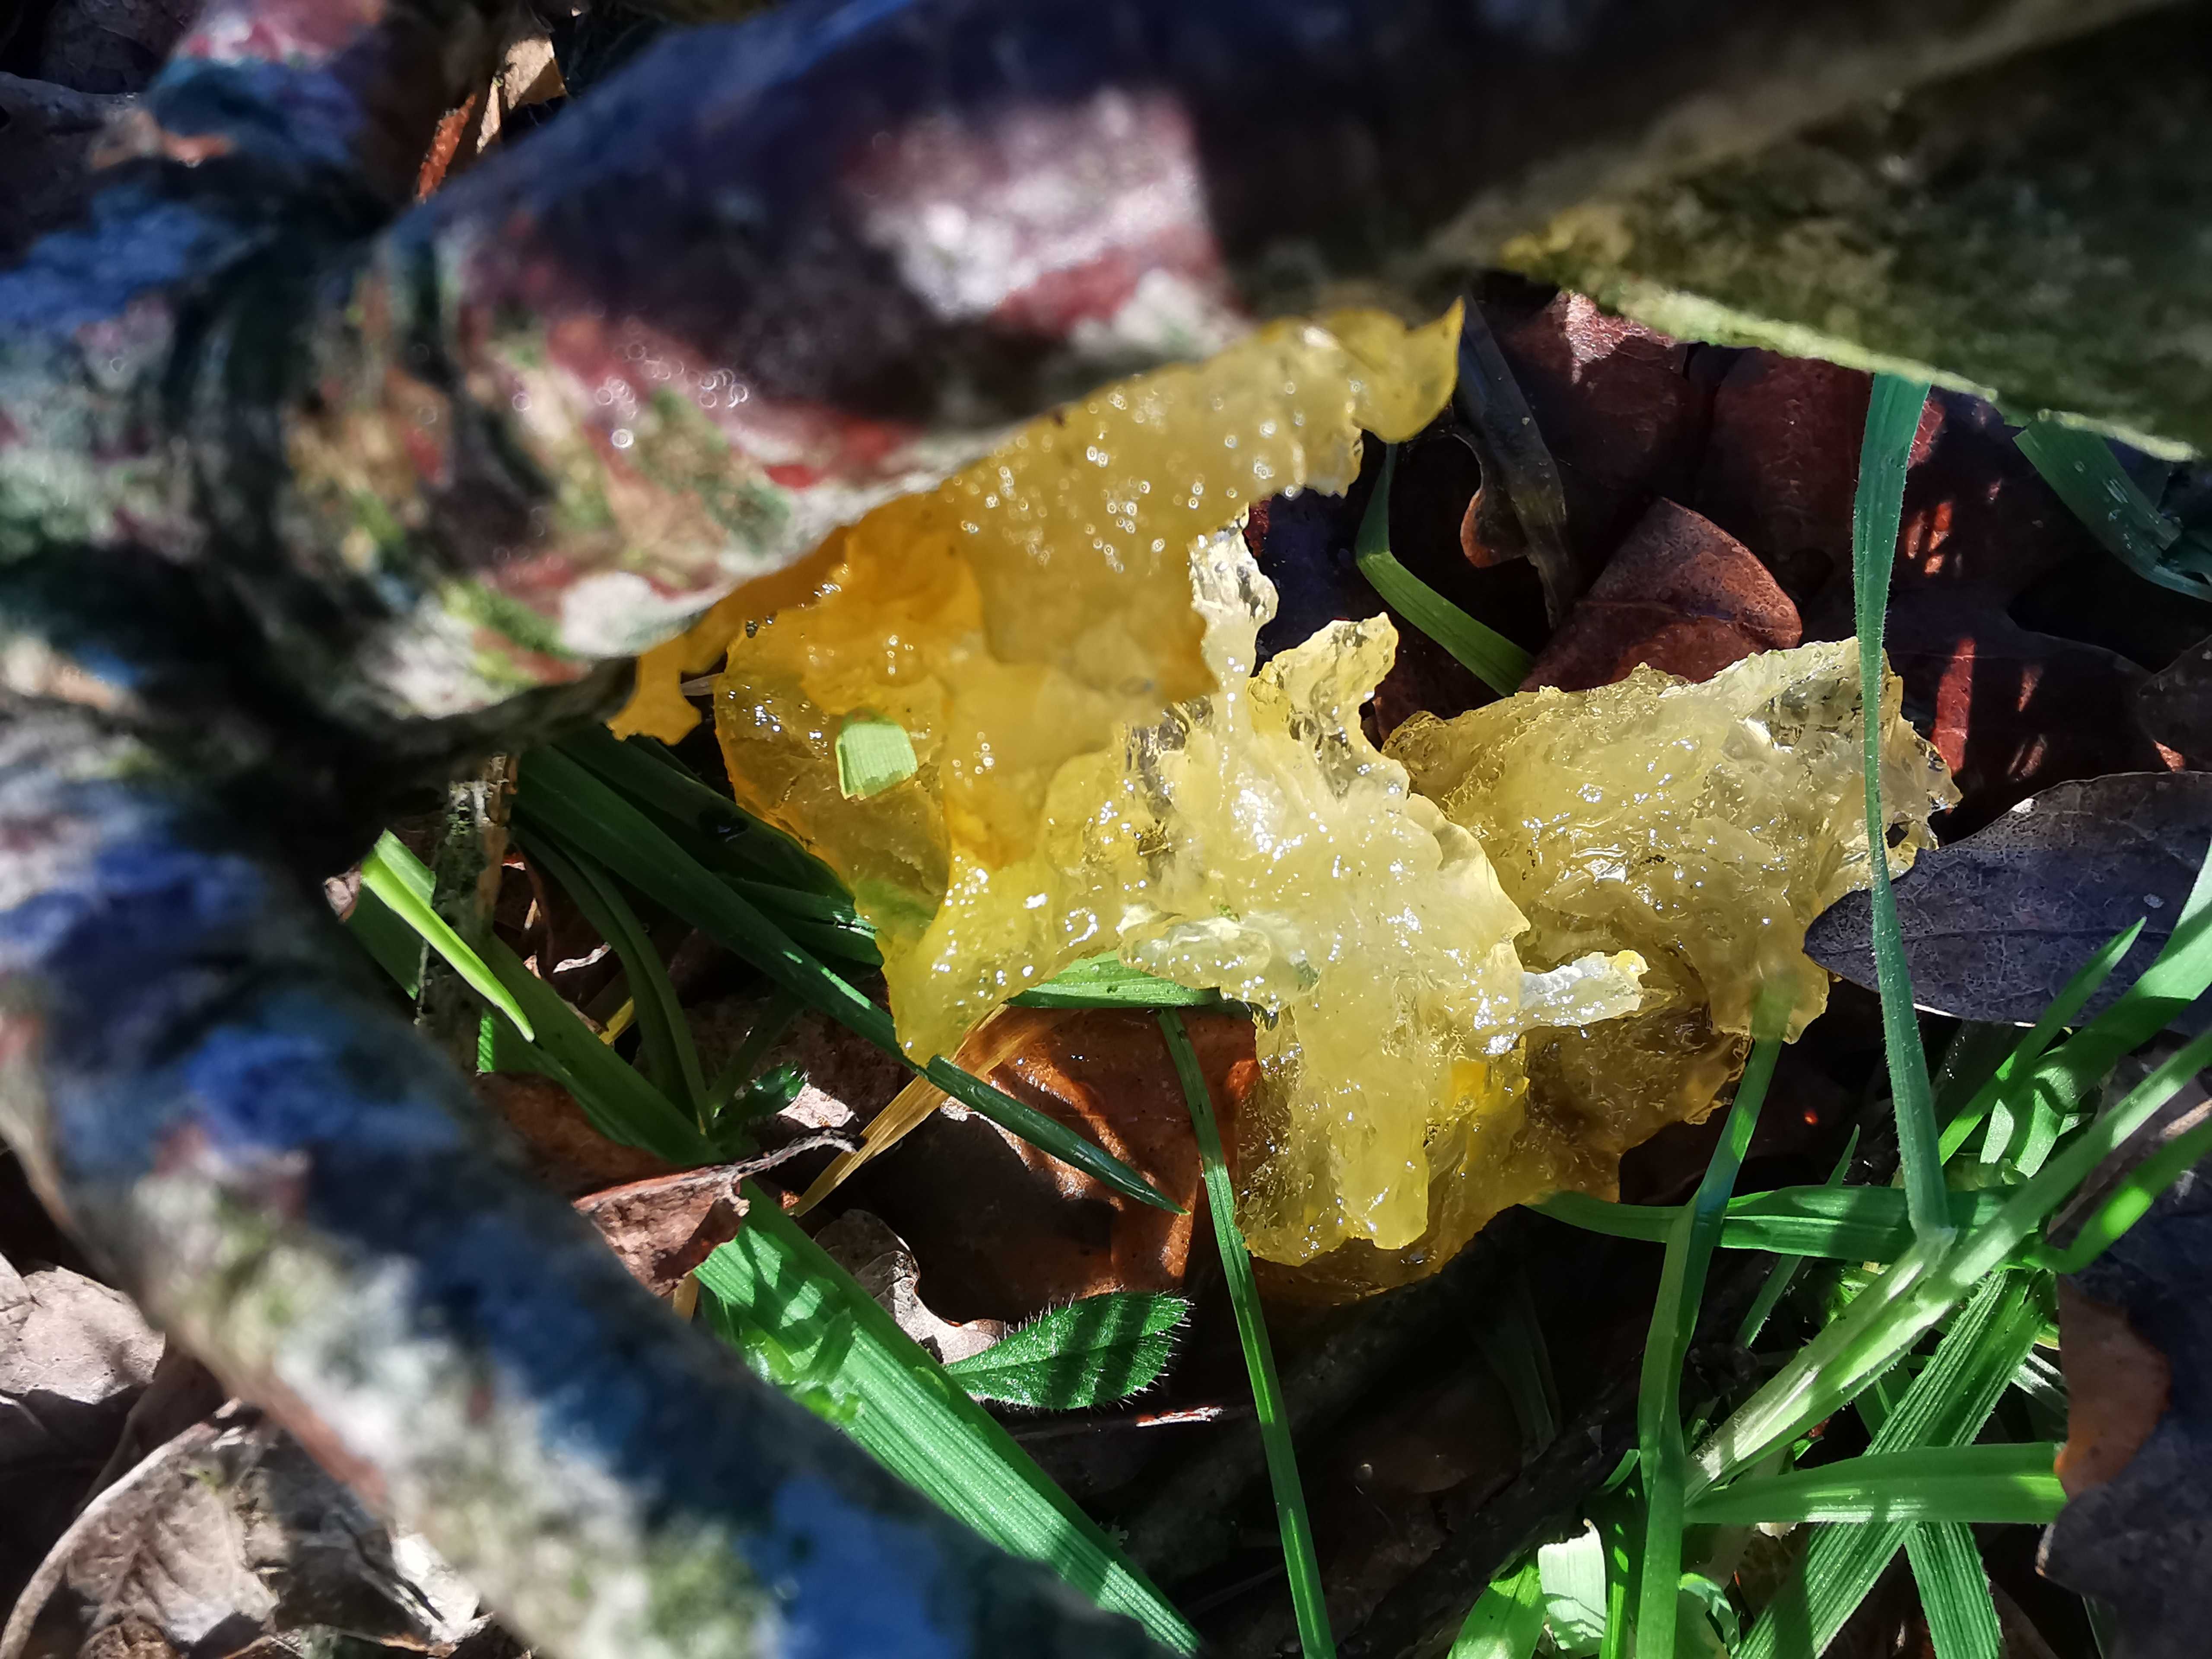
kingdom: Fungi
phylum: Basidiomycota
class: Tremellomycetes
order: Tremellales
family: Tremellaceae
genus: Tremella
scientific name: Tremella mesenterica
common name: gul bævresvamp
